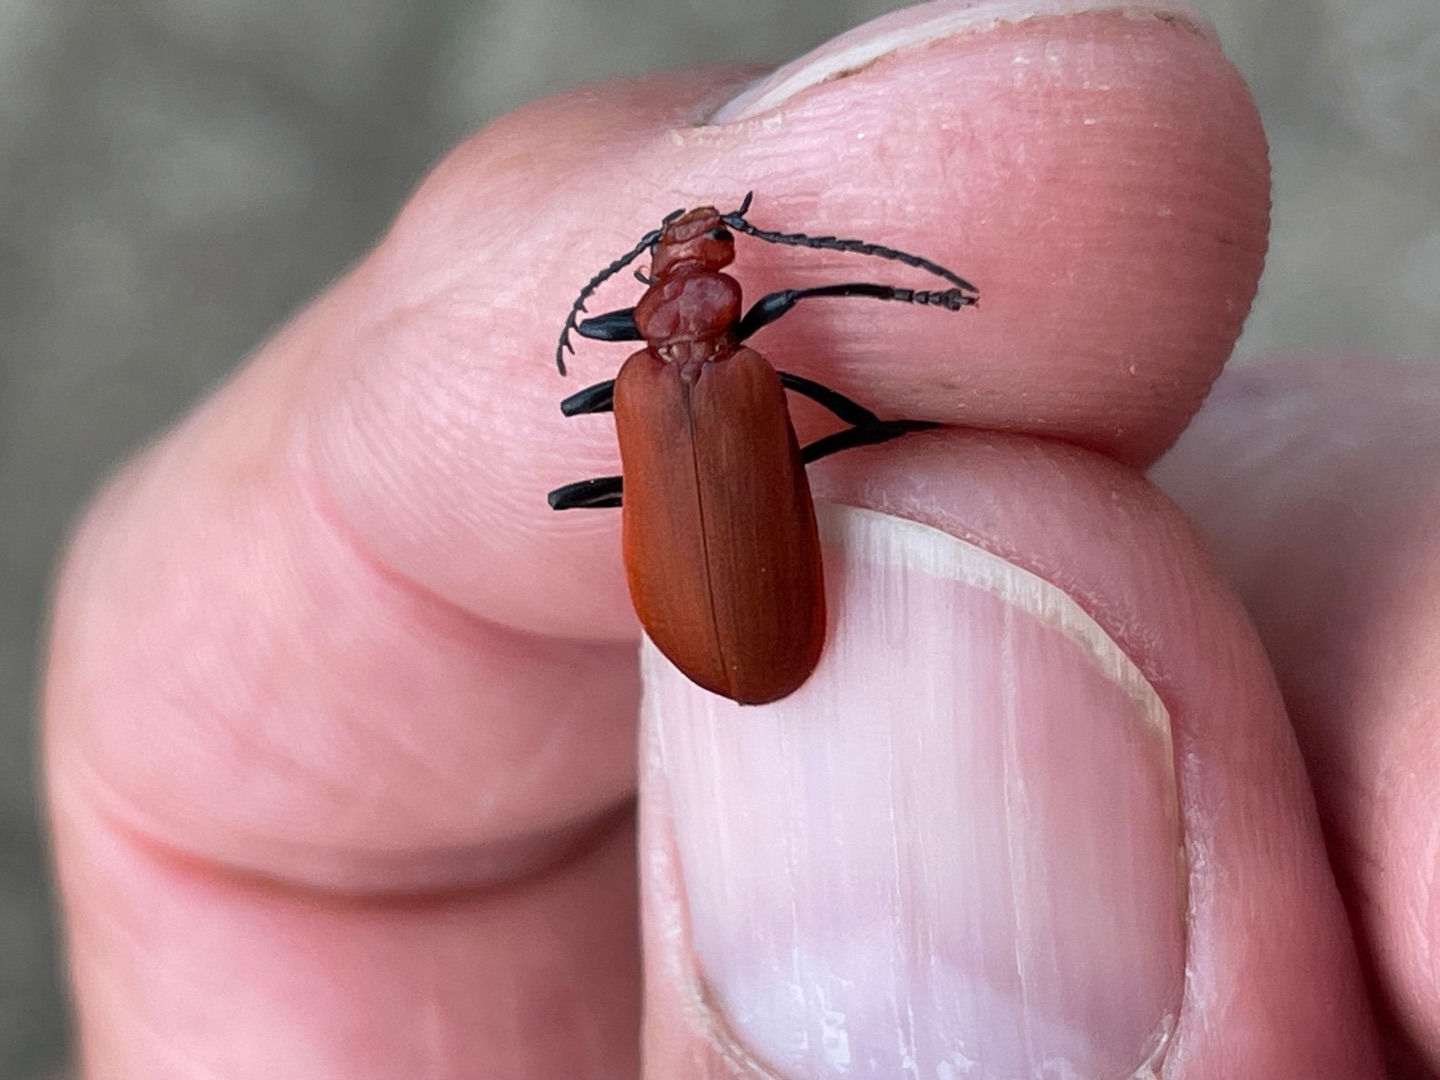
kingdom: Animalia
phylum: Arthropoda
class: Insecta
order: Coleoptera
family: Pyrochroidae
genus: Pyrochroa
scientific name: Pyrochroa serraticornis
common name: Rødhovedet kardinalbille
